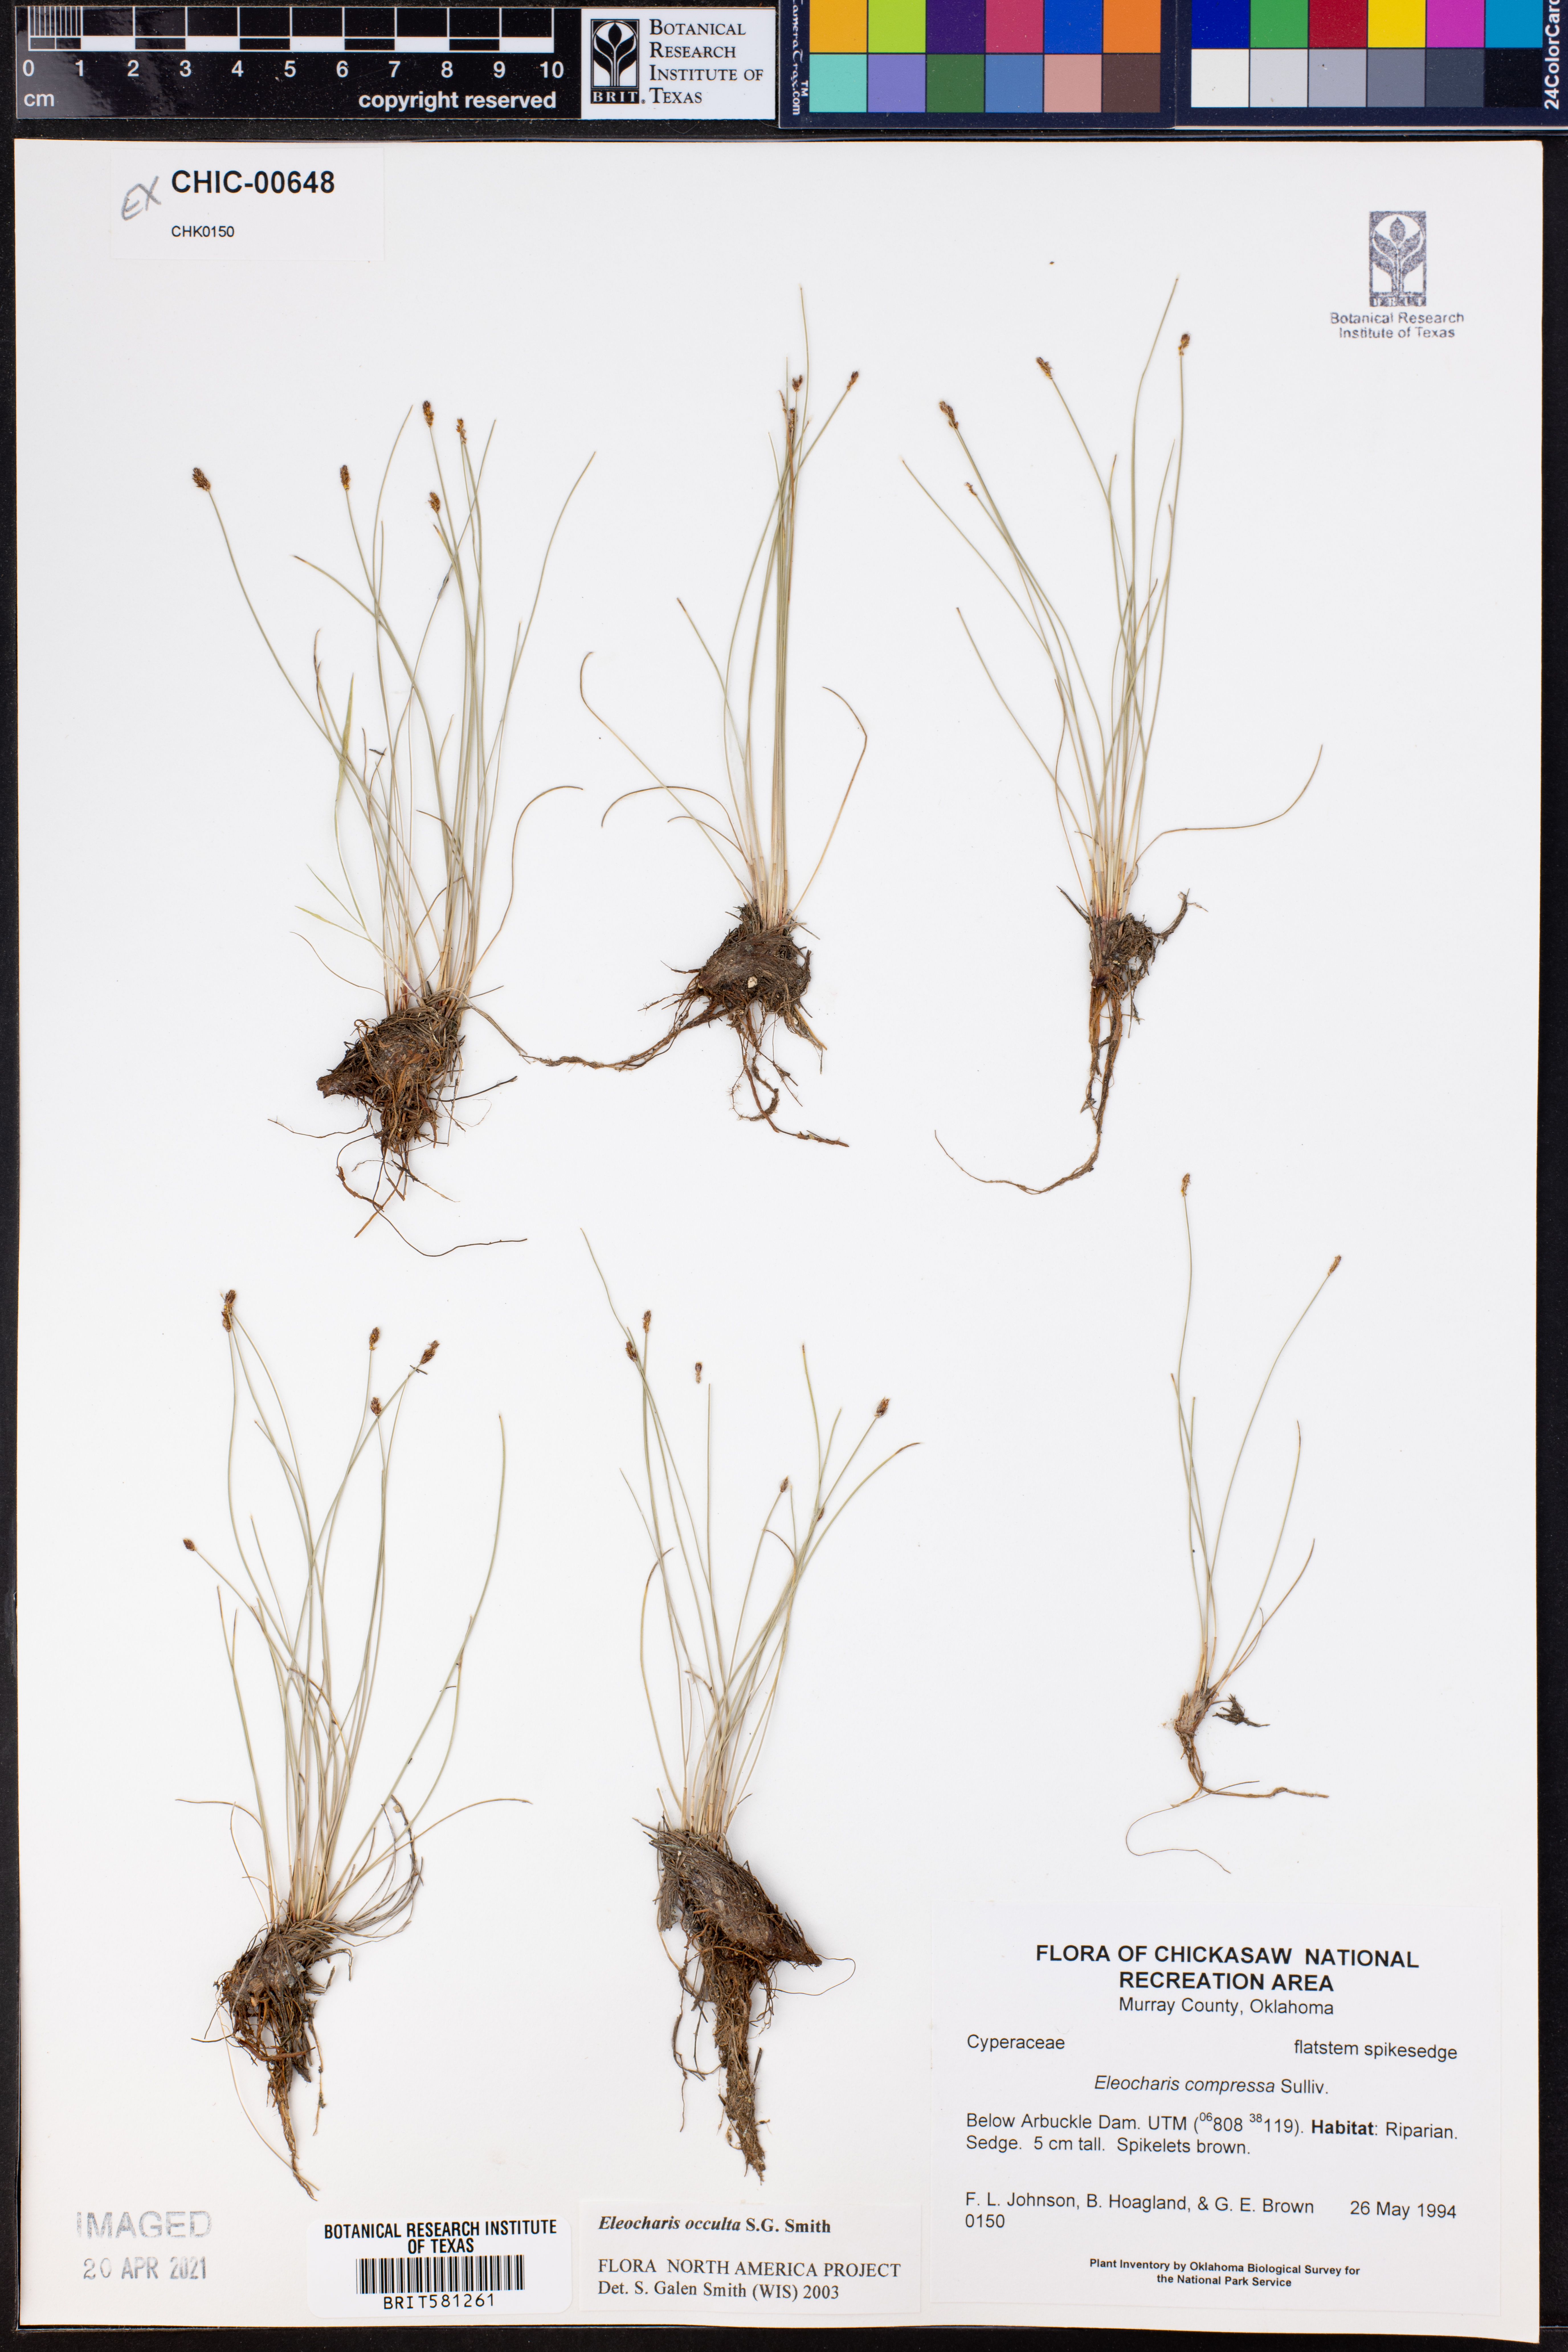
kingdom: Plantae
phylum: Tracheophyta
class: Liliopsida
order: Poales
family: Cyperaceae
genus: Eleocharis
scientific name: Eleocharis occulta
